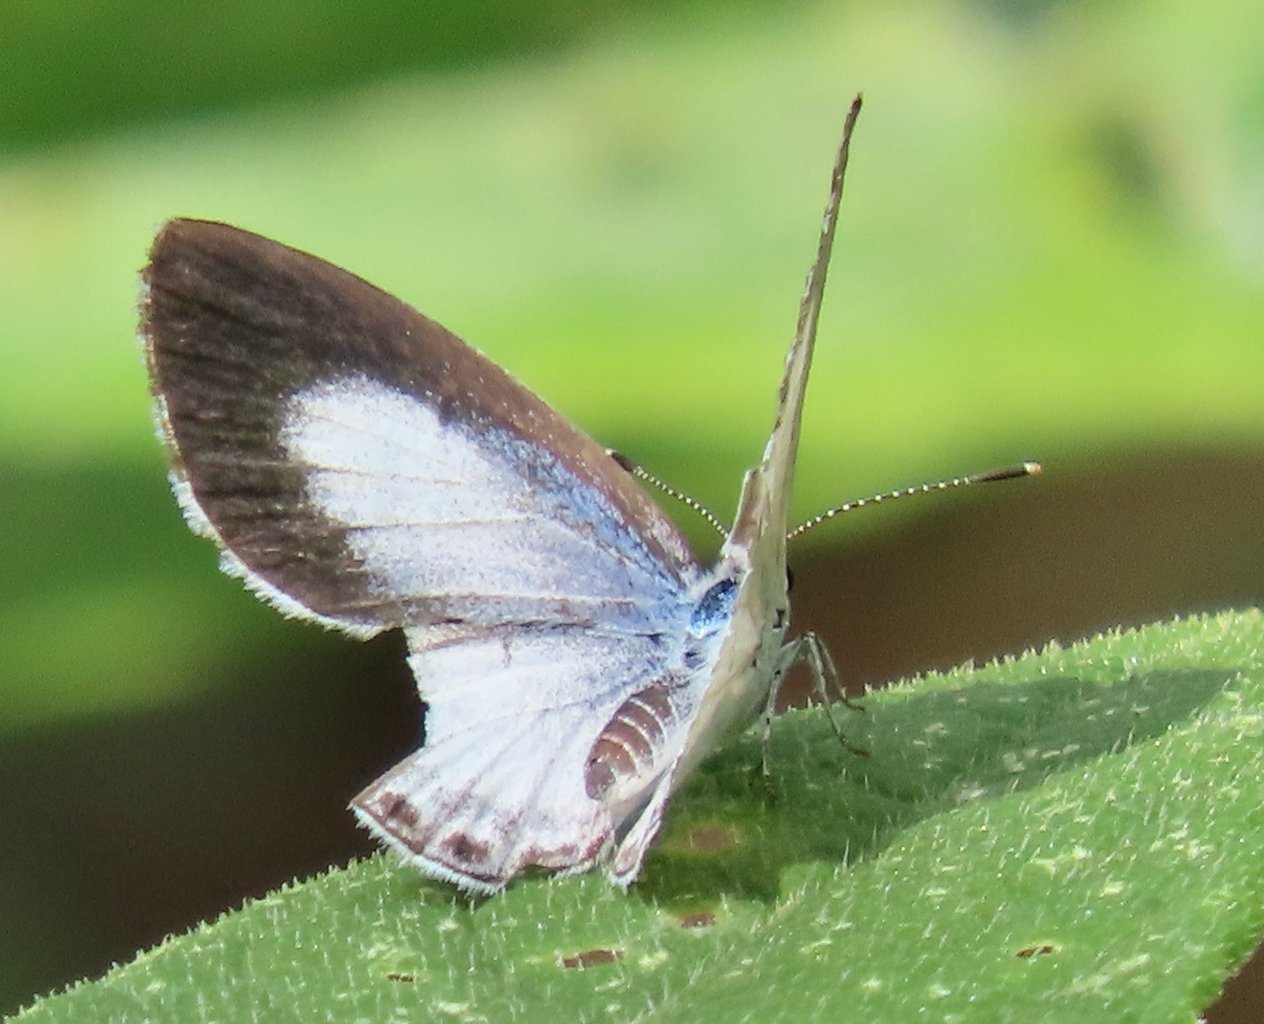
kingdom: Animalia
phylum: Arthropoda
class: Insecta
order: Lepidoptera
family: Lycaenidae
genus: Cyaniris
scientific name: Cyaniris neglecta
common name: Summer Azure
